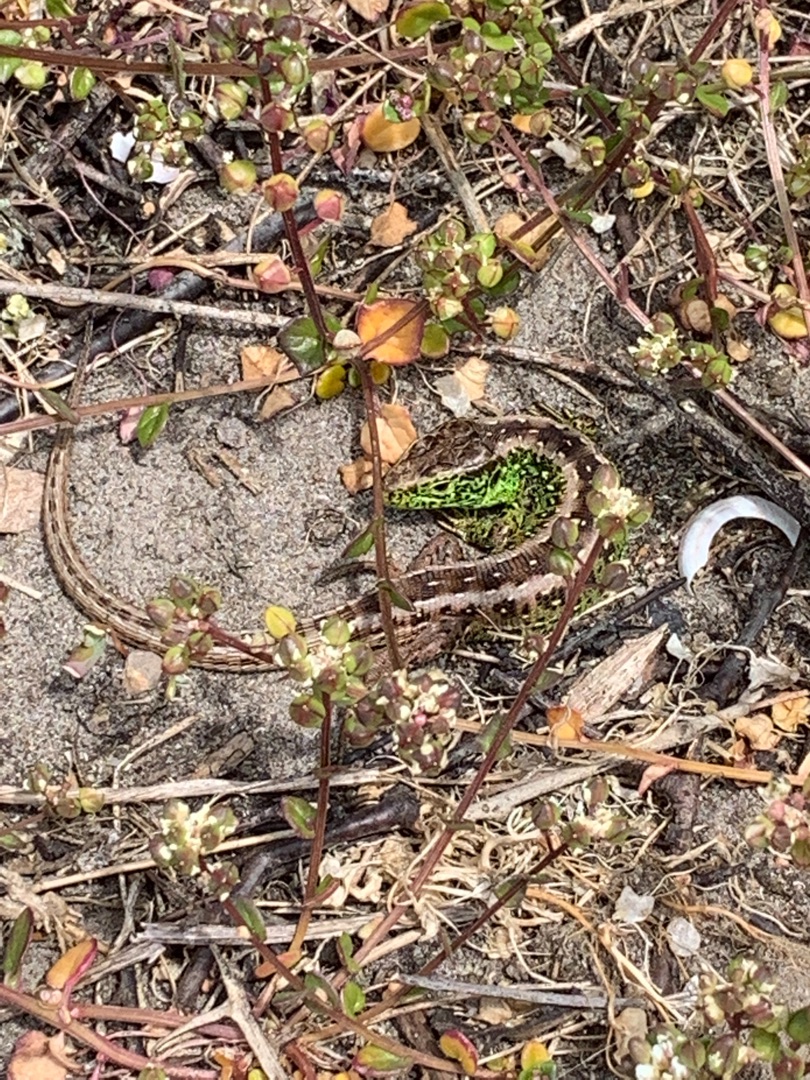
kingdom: Animalia
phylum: Chordata
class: Squamata
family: Lacertidae
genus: Lacerta
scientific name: Lacerta agilis
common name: Markfirben
